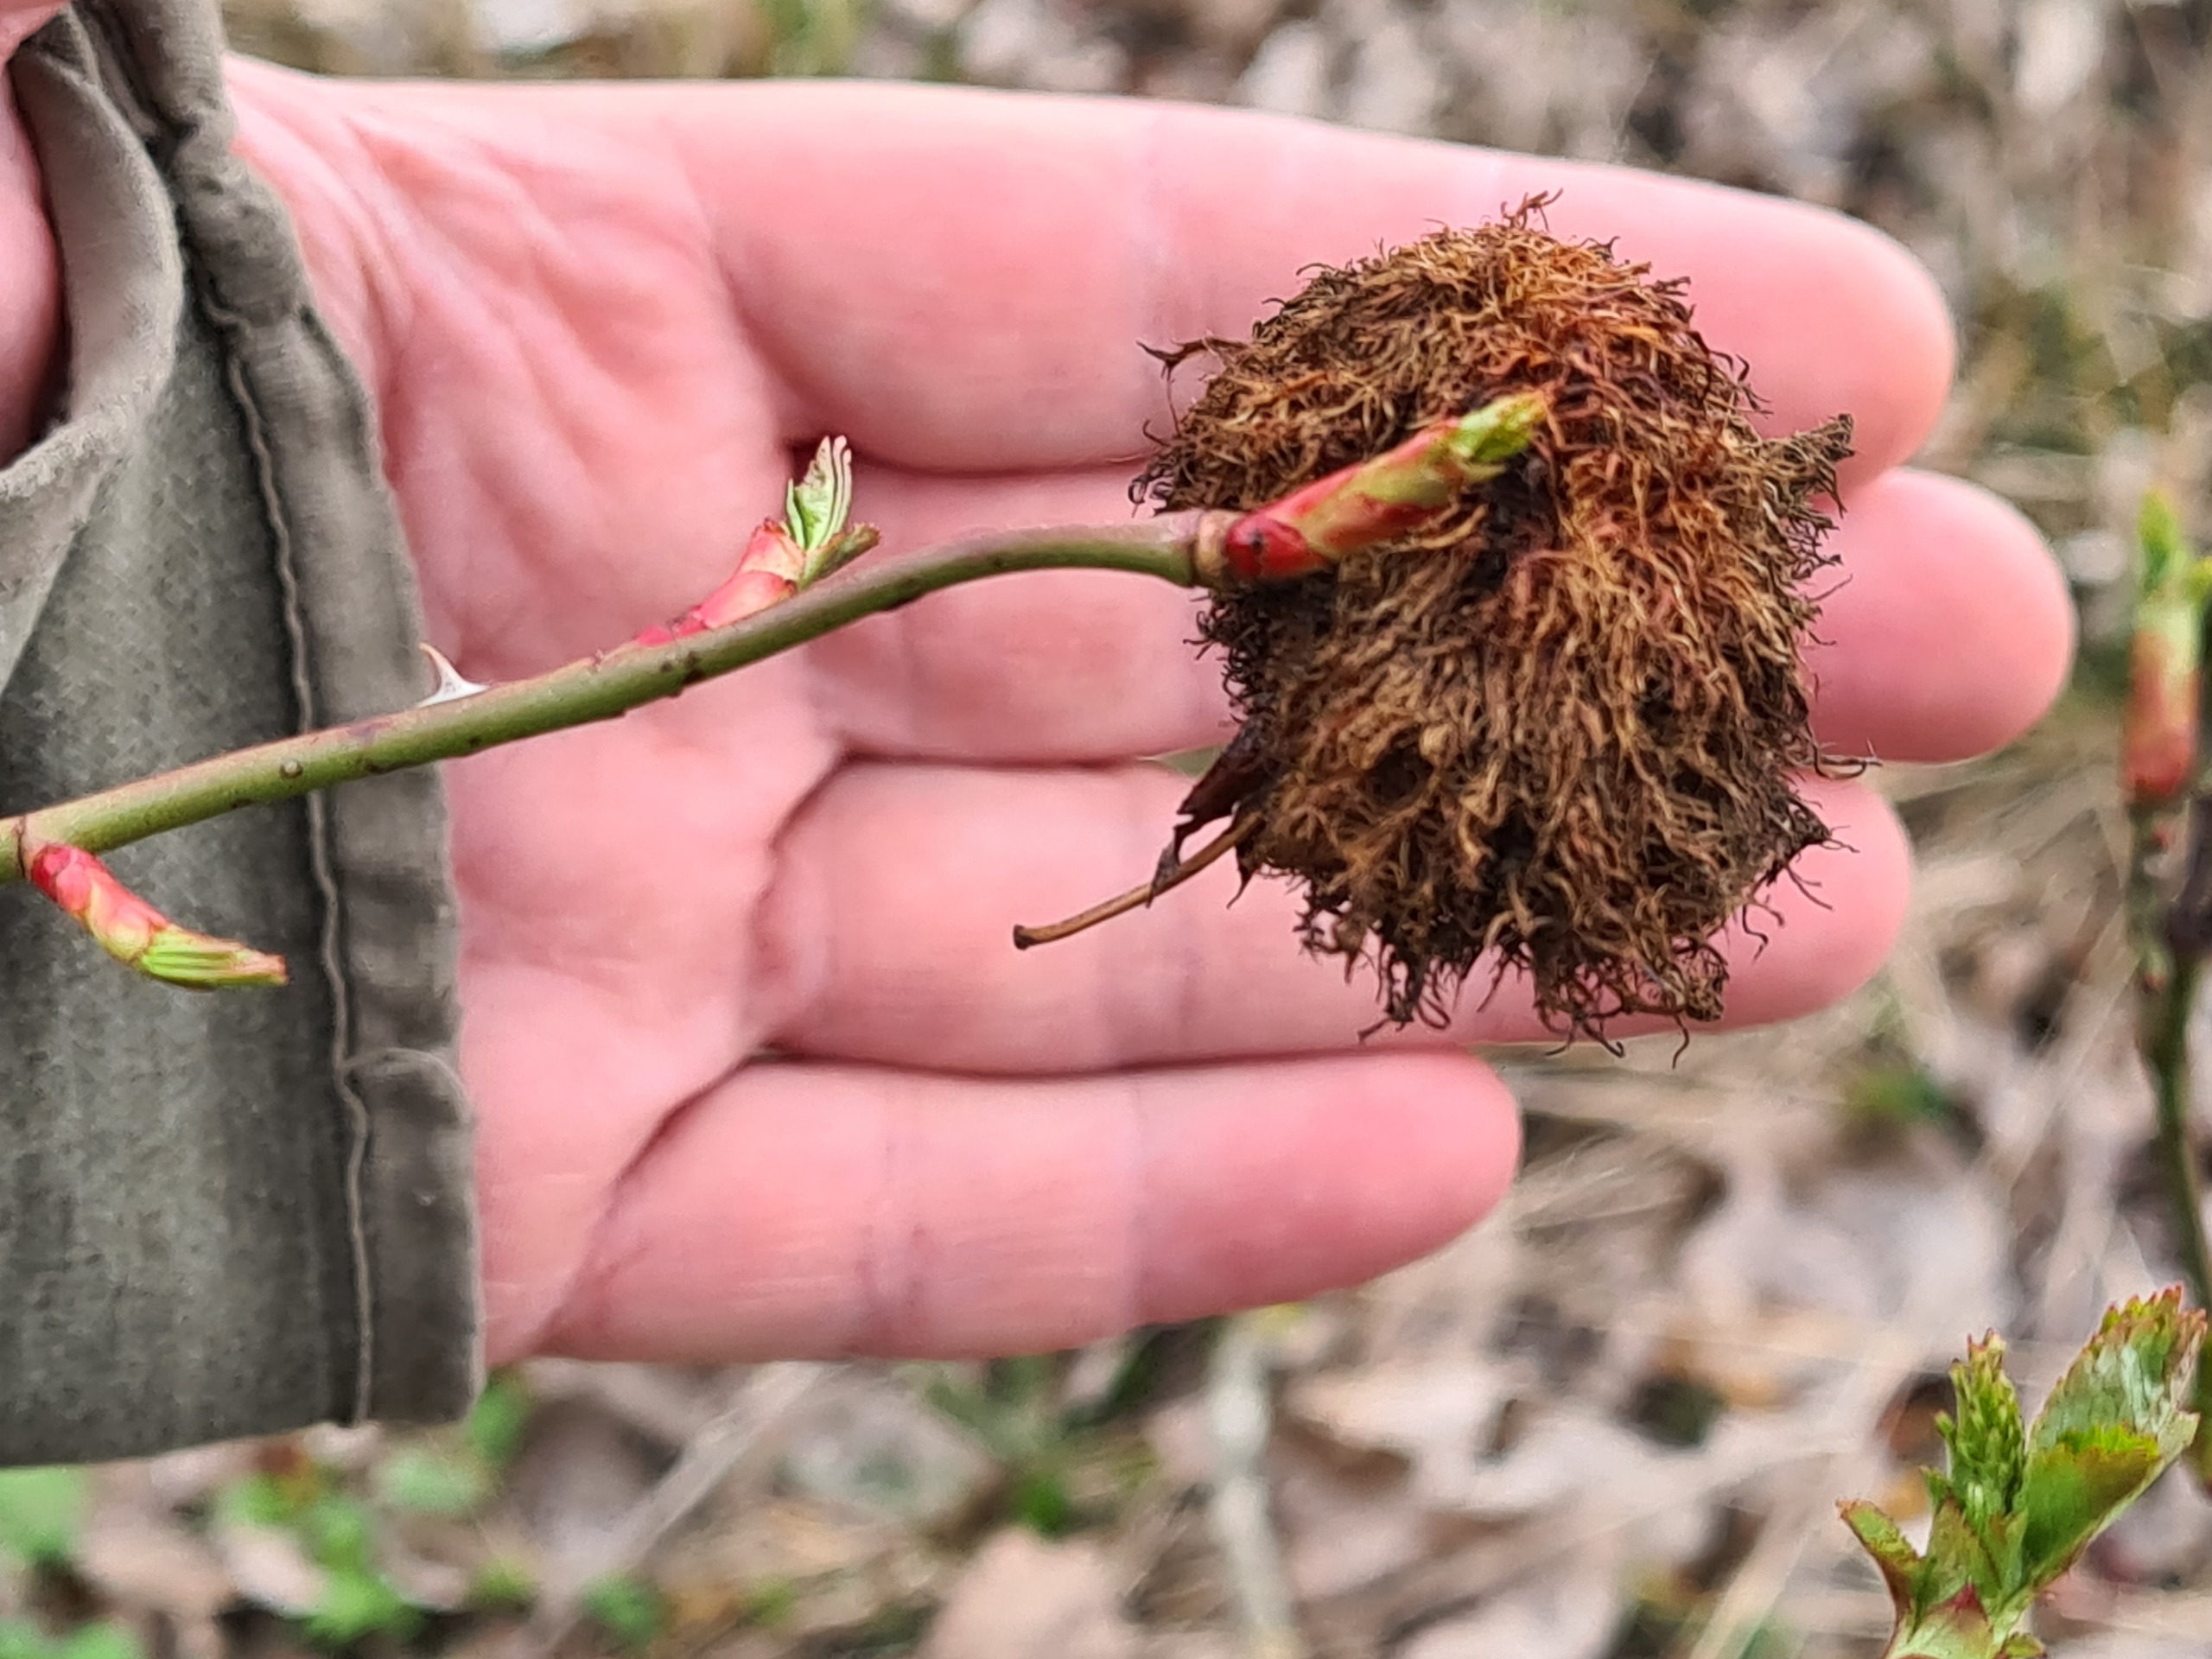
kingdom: Animalia
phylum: Arthropoda
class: Insecta
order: Hymenoptera
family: Cynipidae
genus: Diplolepis
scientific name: Diplolepis rosae
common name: Bedeguargalhveps
